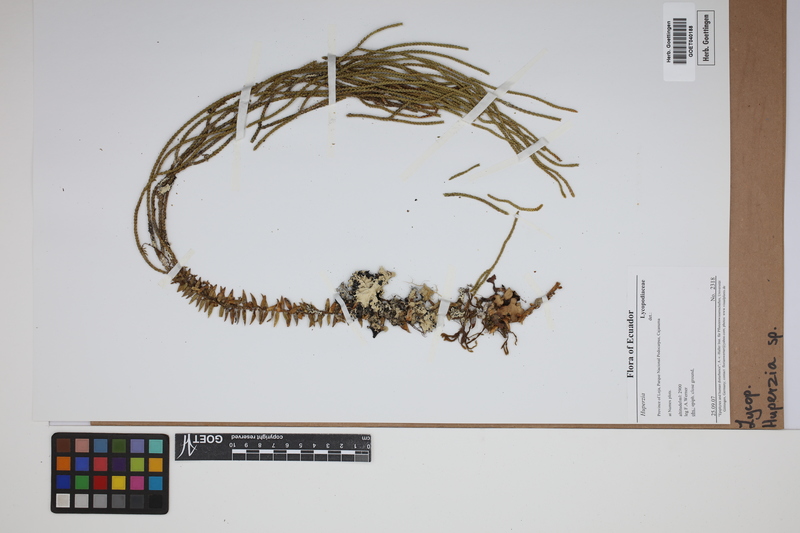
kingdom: Plantae
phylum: Tracheophyta
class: Lycopodiopsida
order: Lycopodiales
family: Lycopodiaceae
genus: Phlegmariurus
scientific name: Phlegmariurus
